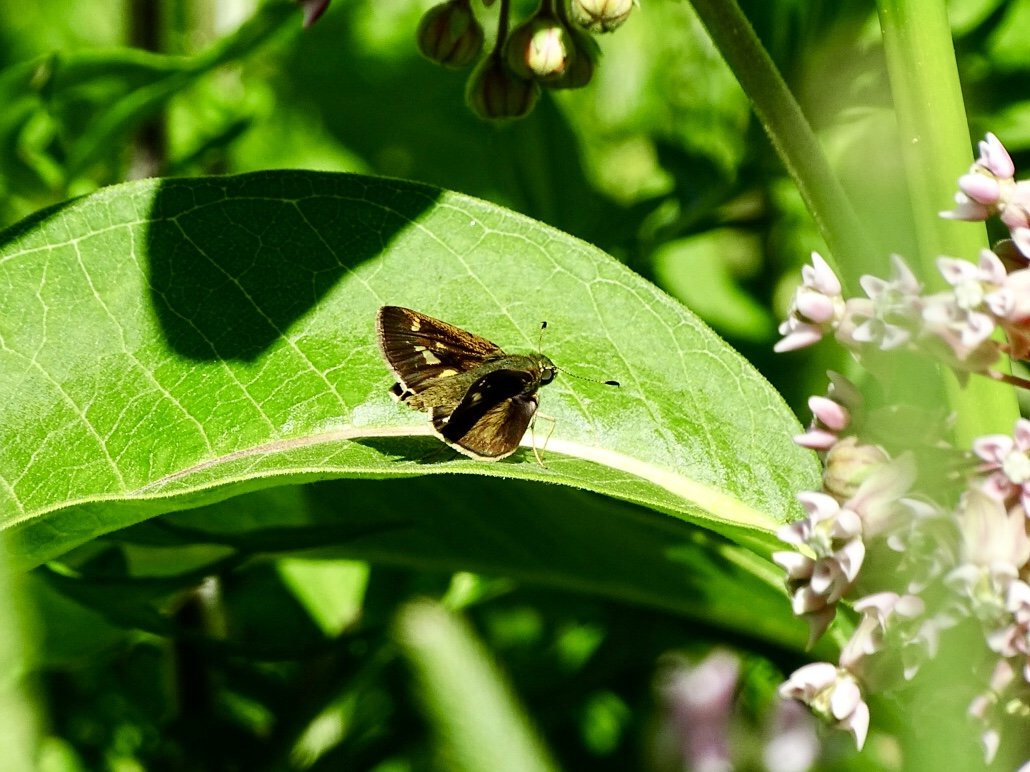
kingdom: Animalia
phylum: Arthropoda
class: Insecta
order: Lepidoptera
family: Hesperiidae
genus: Vernia
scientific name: Vernia verna
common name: Little Glassywing
